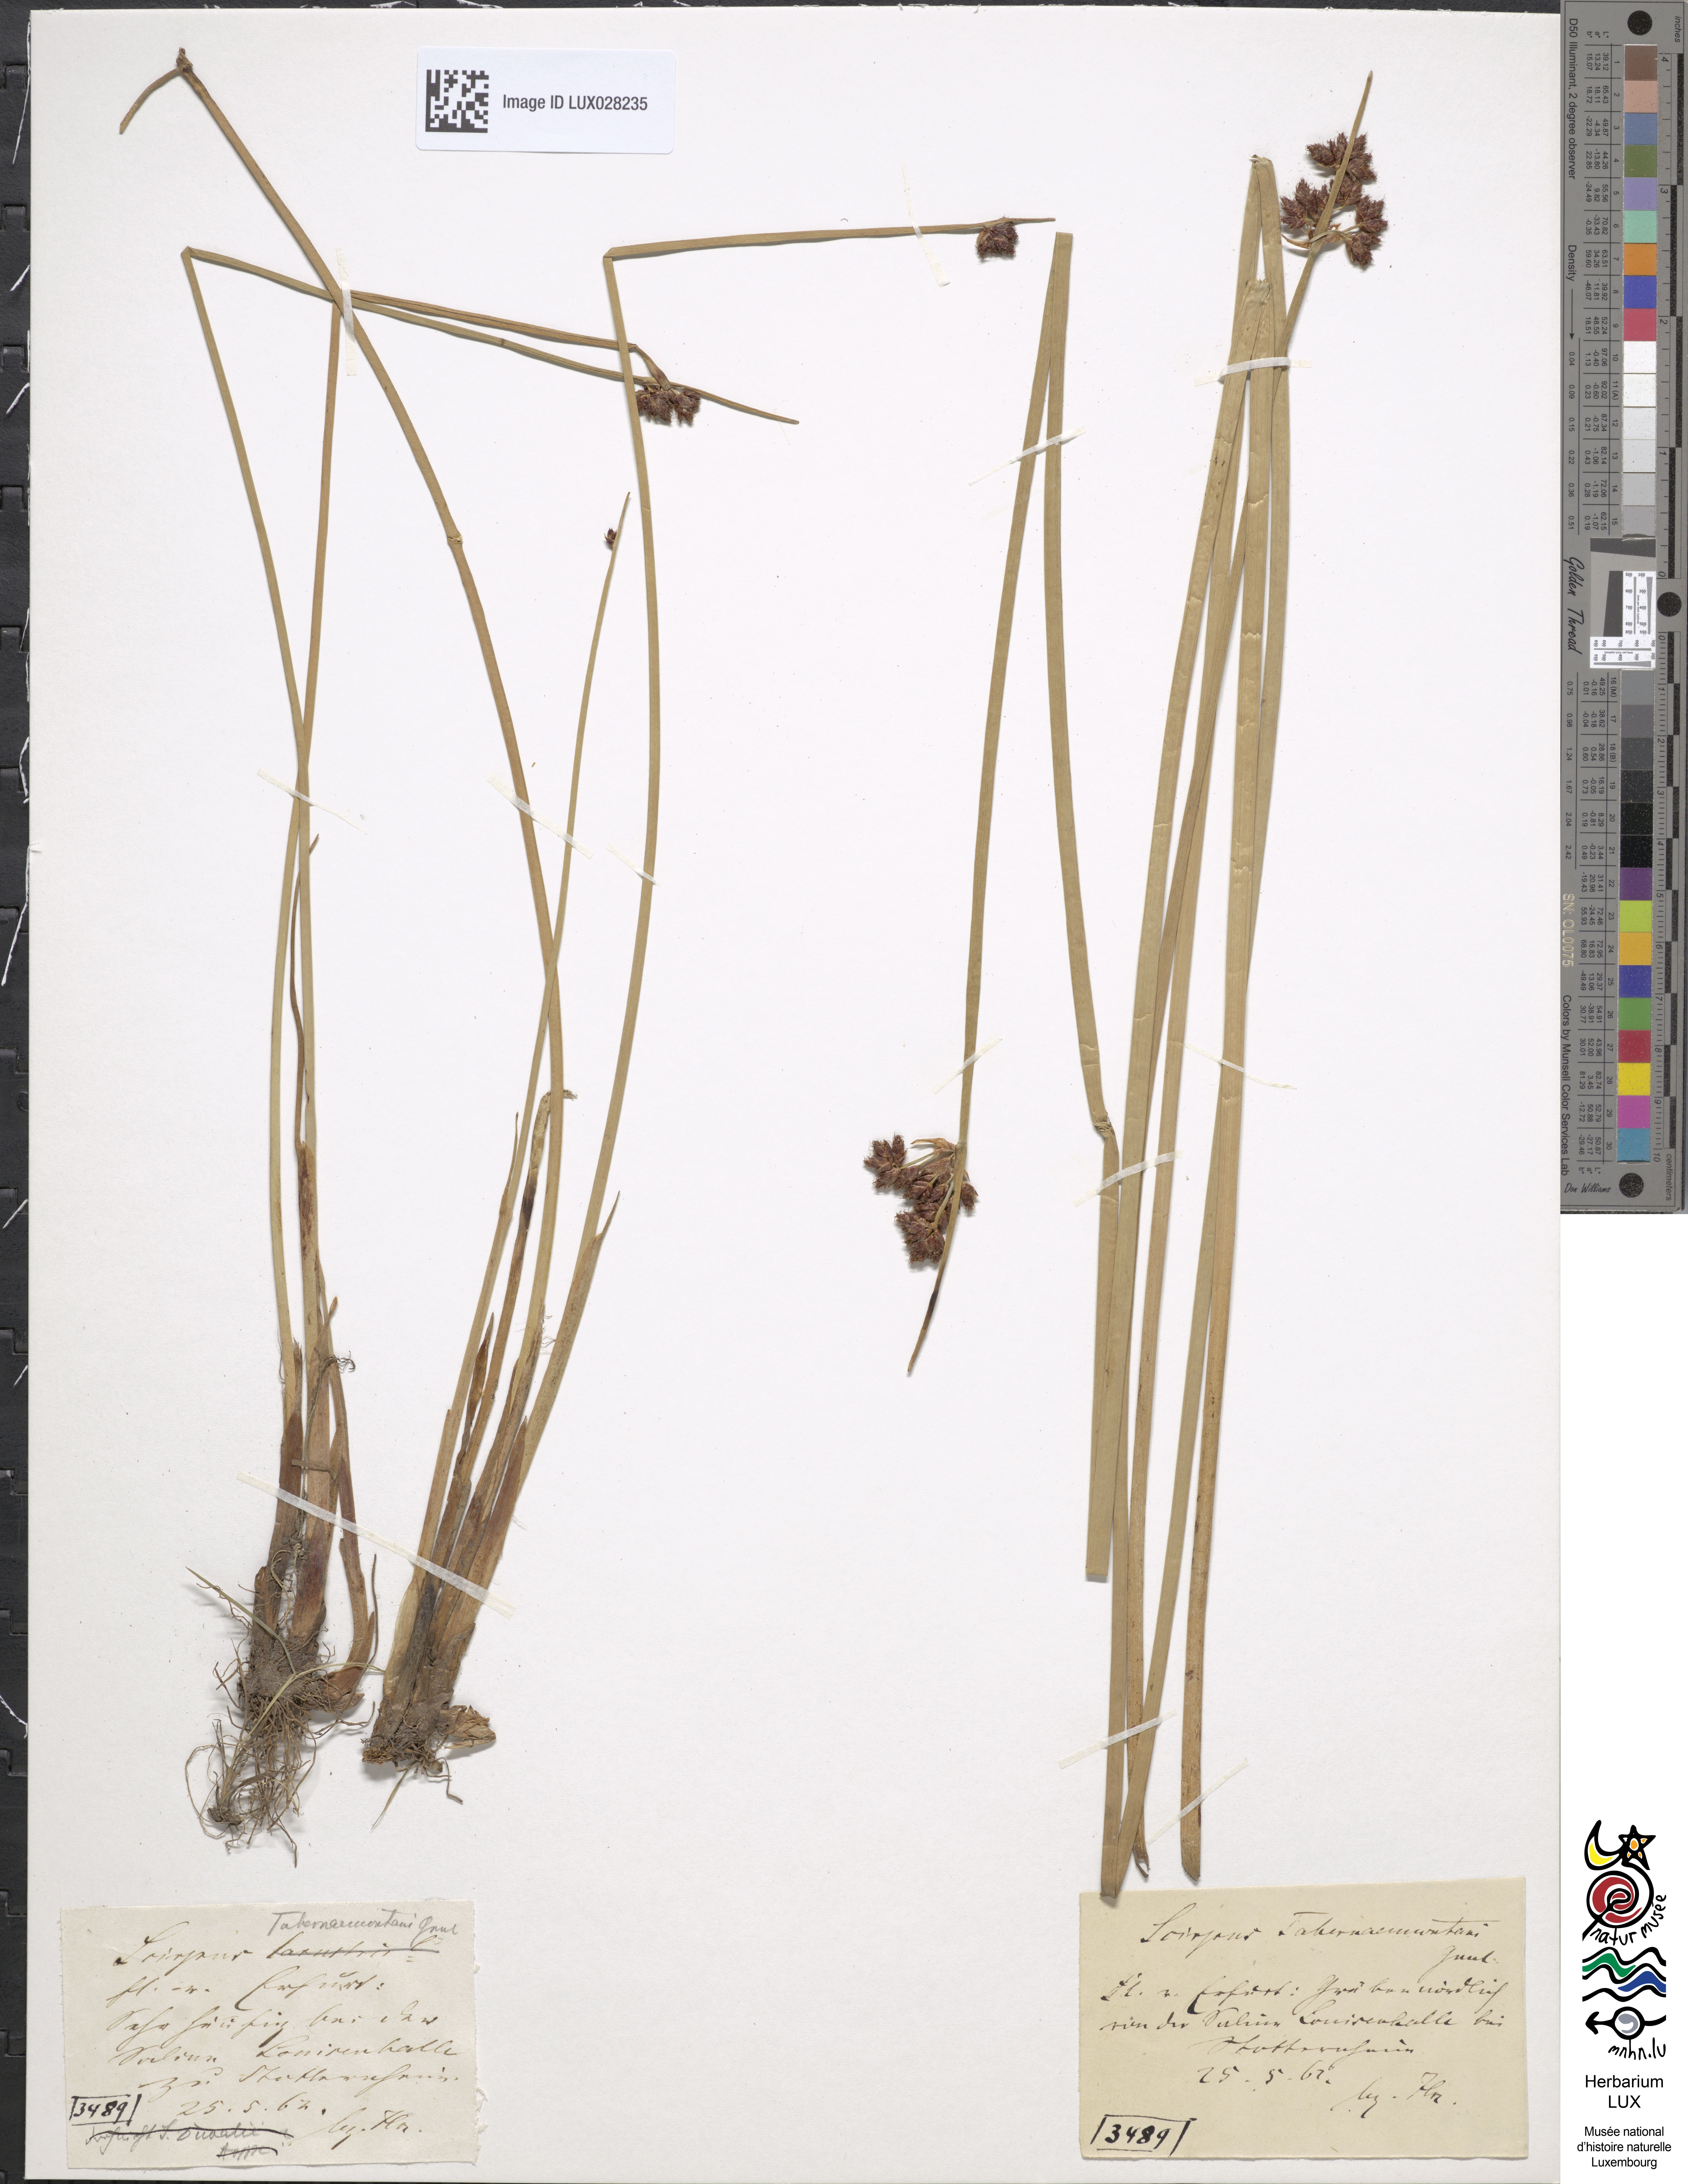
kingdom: Plantae
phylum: Tracheophyta
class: Liliopsida
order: Poales
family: Cyperaceae
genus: Schoenoplectus
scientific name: Schoenoplectus tabernaemontani
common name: Grey club-rush
